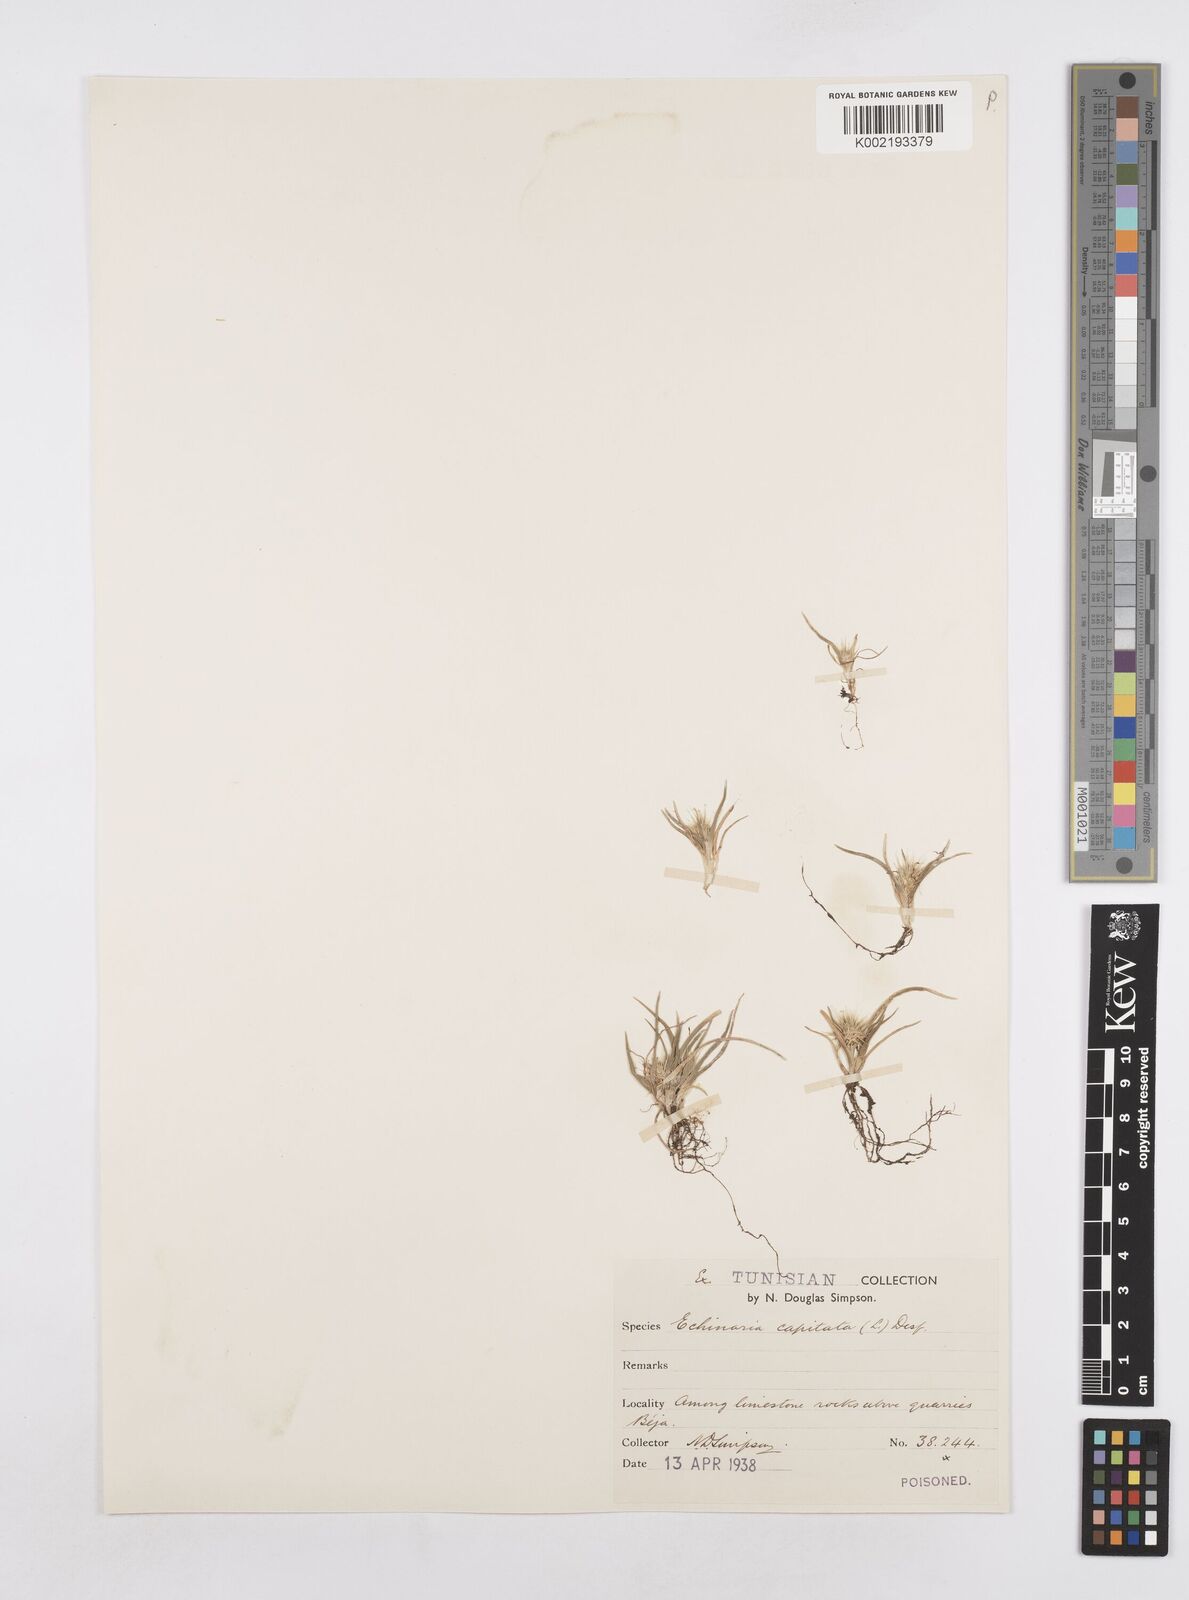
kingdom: Plantae
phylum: Tracheophyta
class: Liliopsida
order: Poales
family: Poaceae
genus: Echinaria
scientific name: Echinaria capitata
